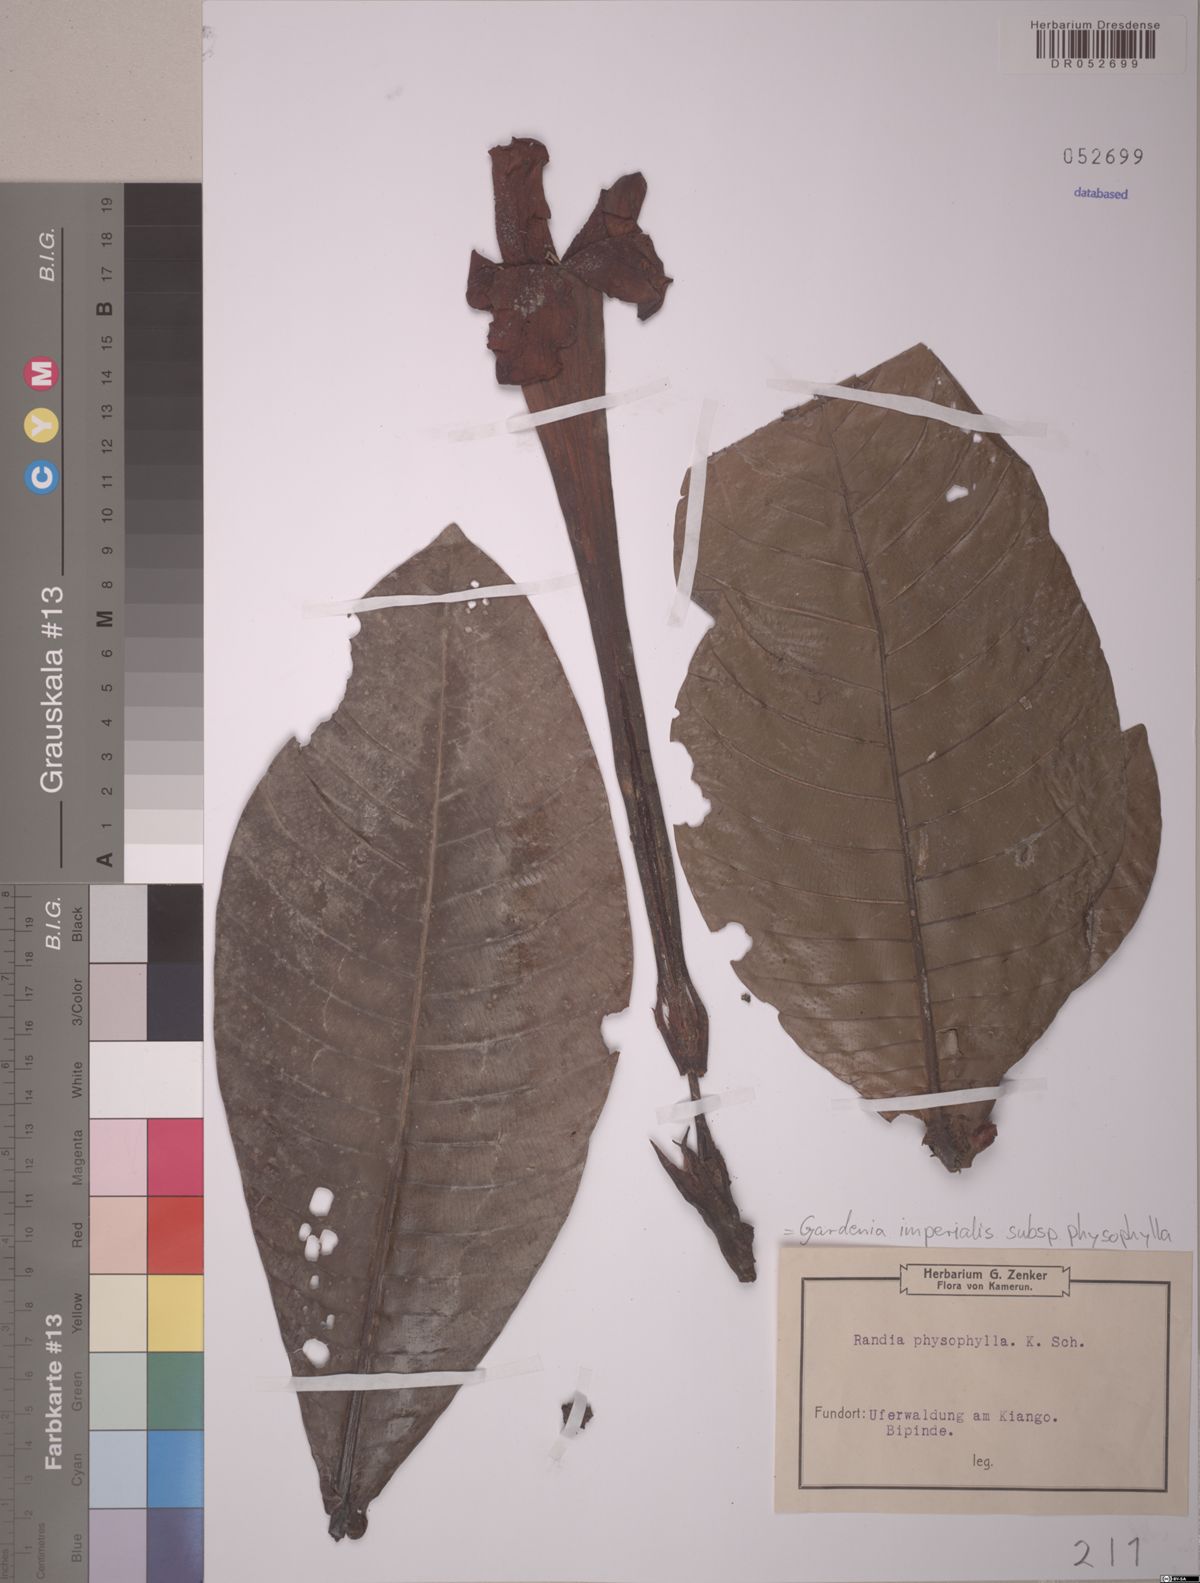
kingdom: Plantae
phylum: Tracheophyta
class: Magnoliopsida
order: Gentianales
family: Rubiaceae
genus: Gardenia
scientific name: Gardenia imperialis
